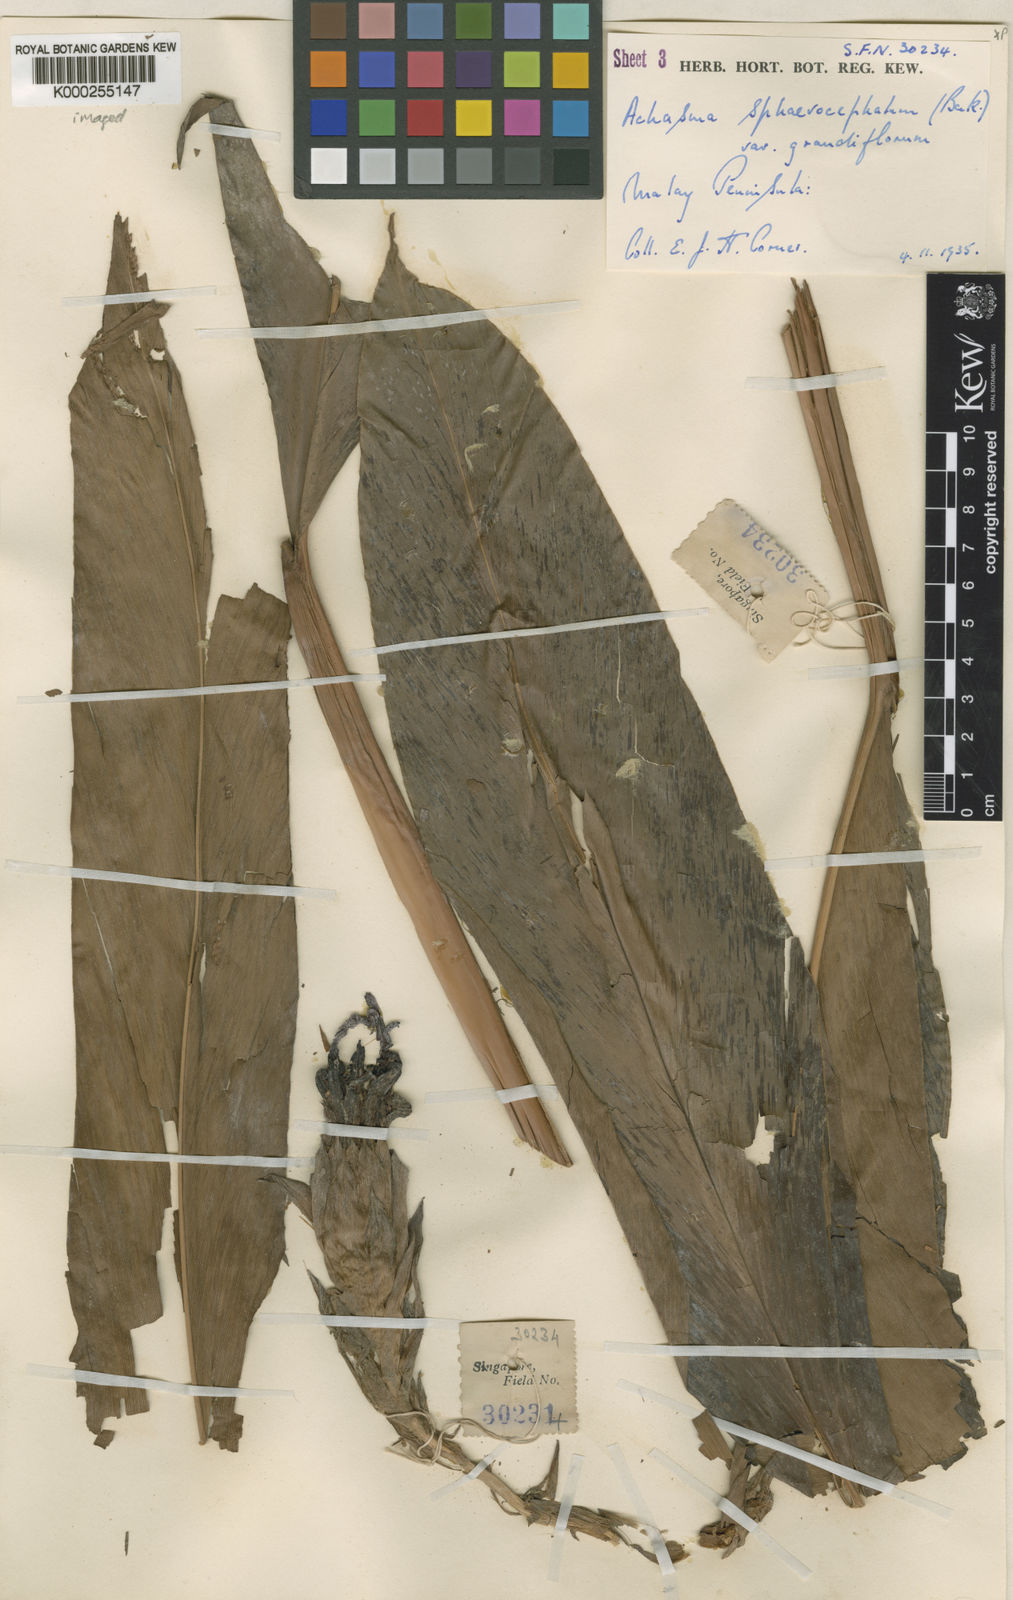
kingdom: Plantae
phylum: Tracheophyta
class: Liliopsida
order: Zingiberales
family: Zingiberaceae
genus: Etlingera
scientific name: Etlingera
